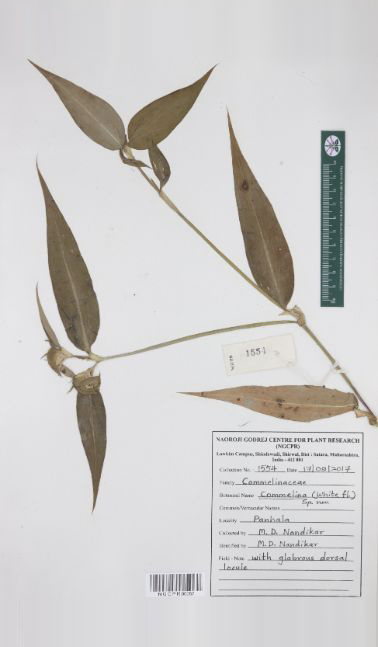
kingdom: Plantae
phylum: Tracheophyta
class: Liliopsida
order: Commelinales
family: Commelinaceae
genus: Commelina
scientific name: Commelina undulata
